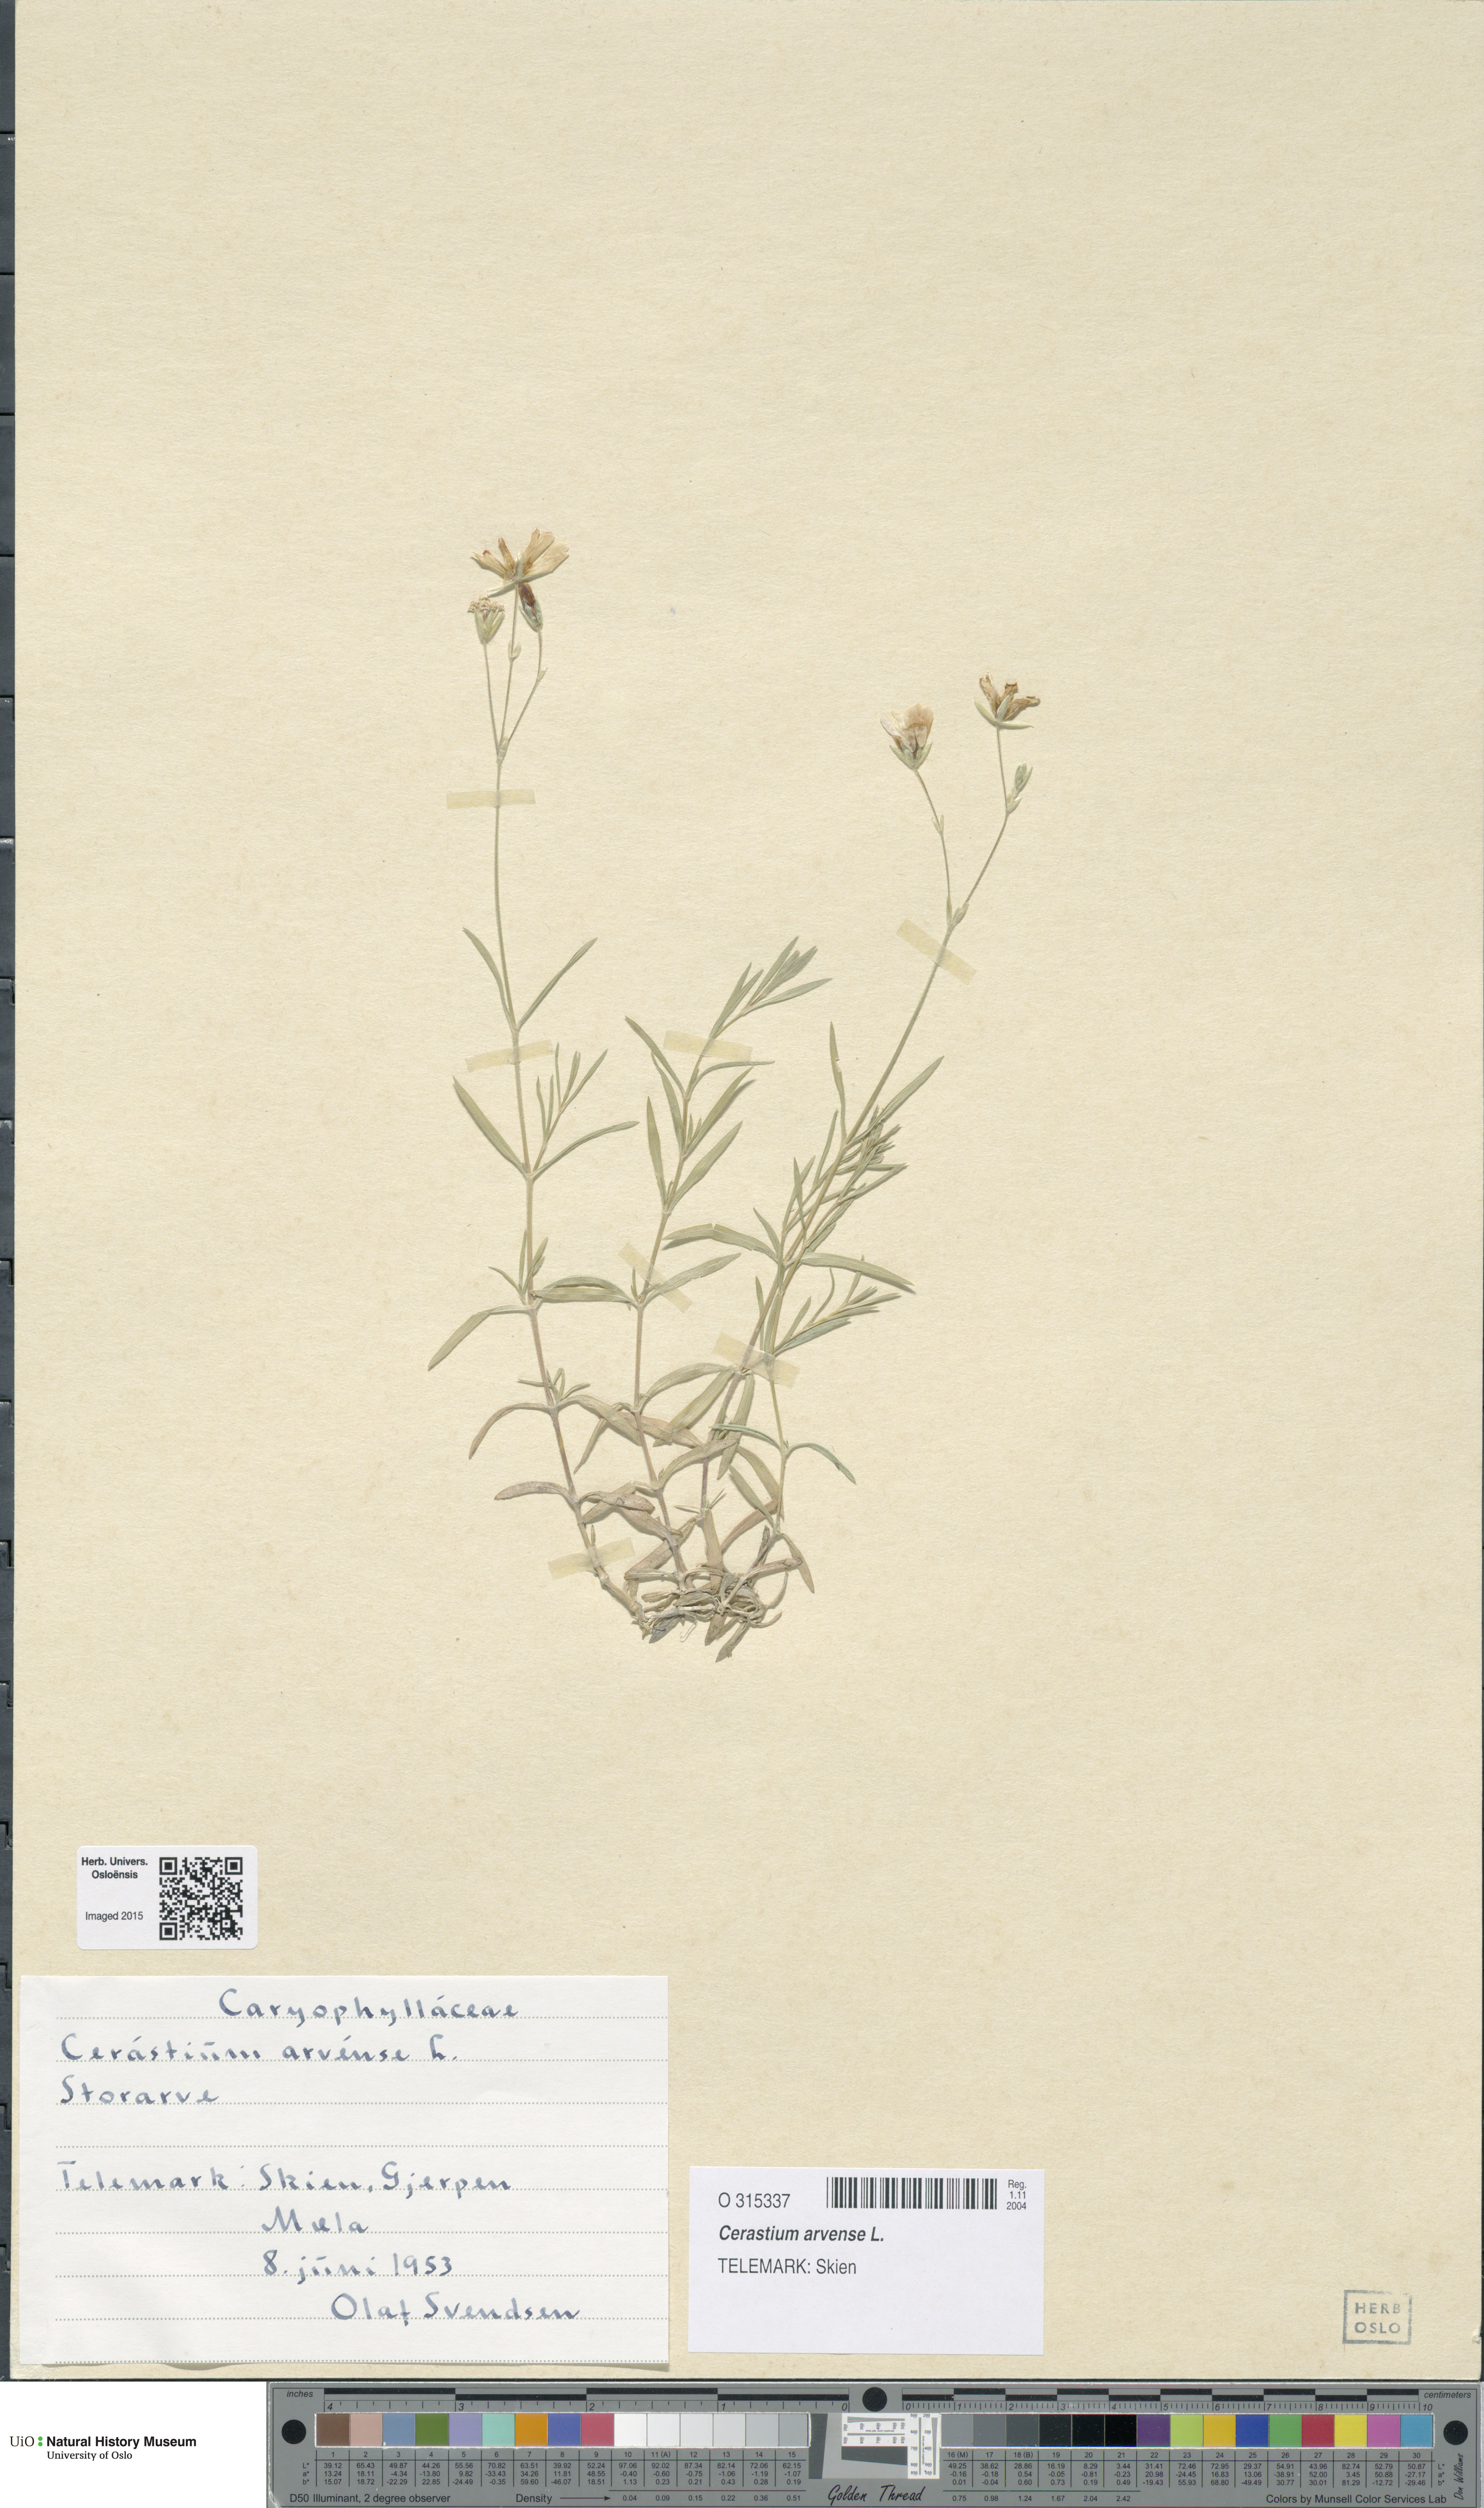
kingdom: Plantae
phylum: Tracheophyta
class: Magnoliopsida
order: Caryophyllales
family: Caryophyllaceae
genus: Cerastium
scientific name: Cerastium arvense
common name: Field mouse-ear
